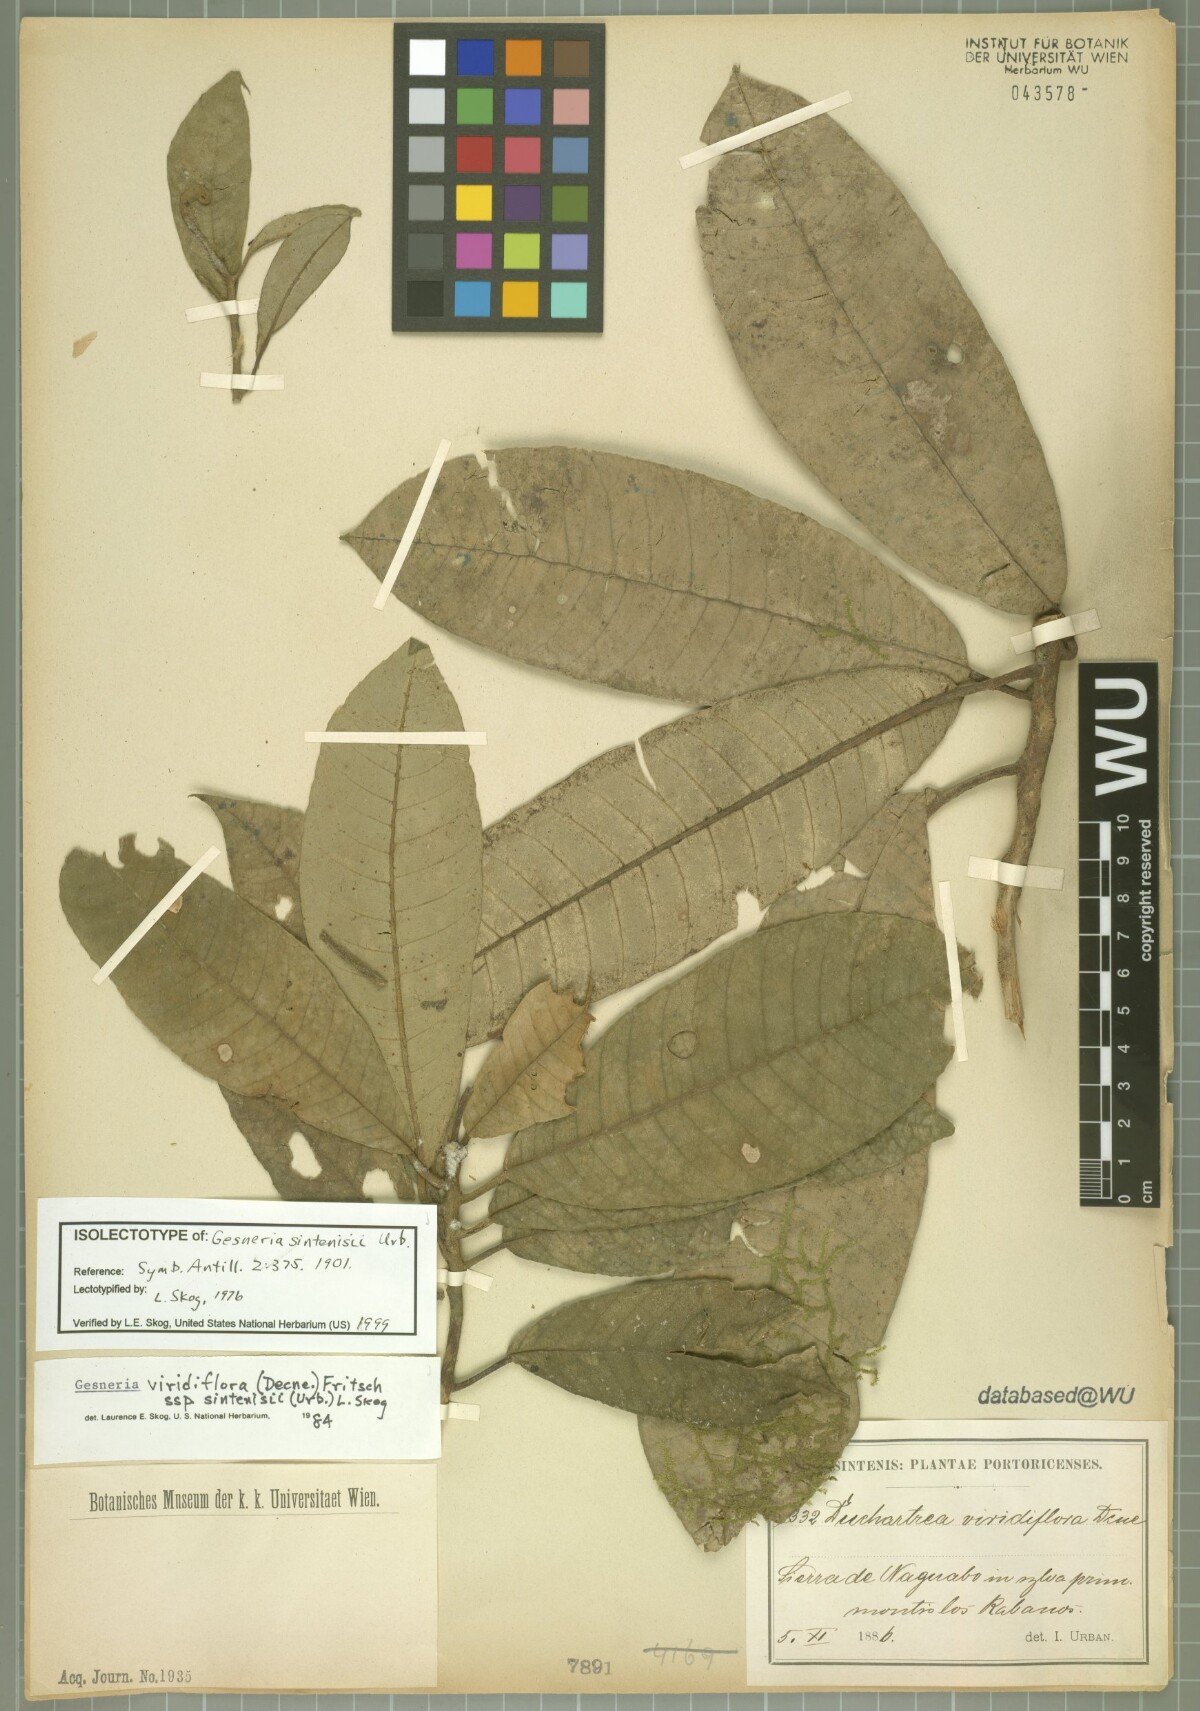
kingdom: Plantae
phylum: Tracheophyta
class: Magnoliopsida
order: Lamiales
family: Gesneriaceae
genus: Gesneria
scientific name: Gesneria sintenisii
